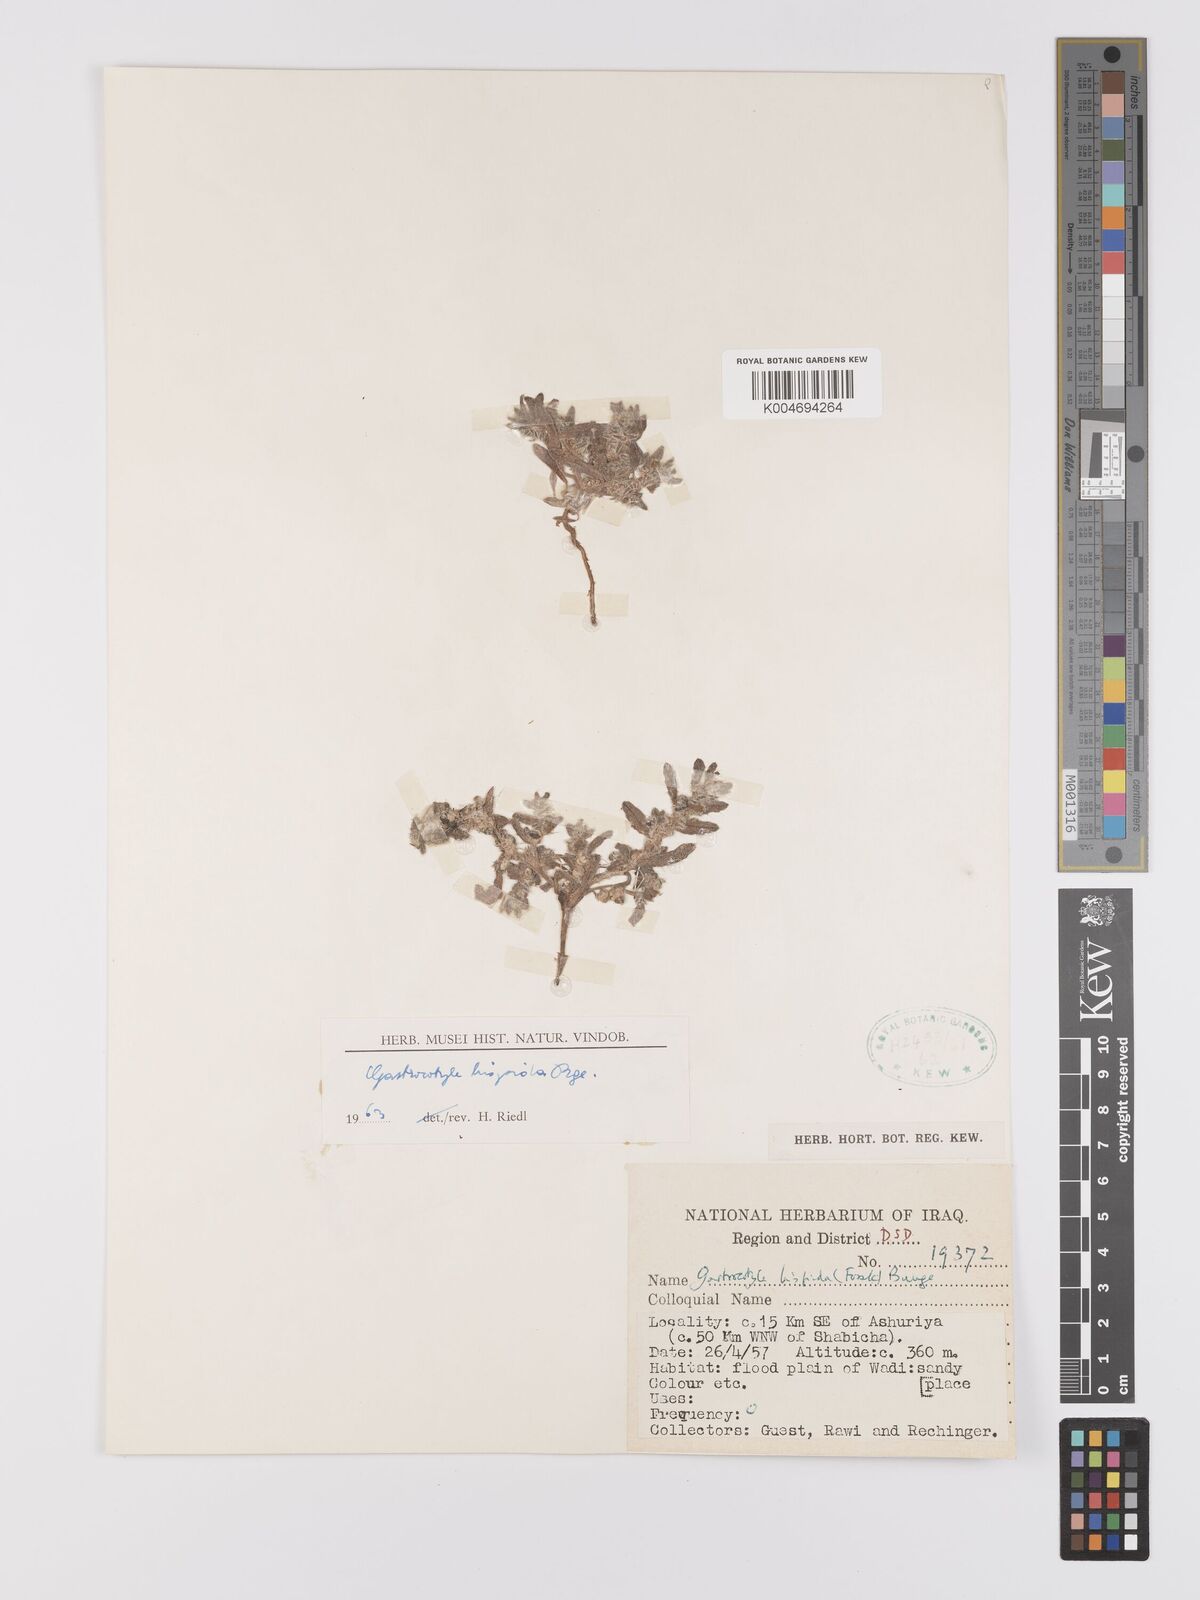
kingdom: Plantae
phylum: Tracheophyta
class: Magnoliopsida
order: Boraginales
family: Boraginaceae
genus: Gastrocotyle
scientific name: Gastrocotyle hispida
